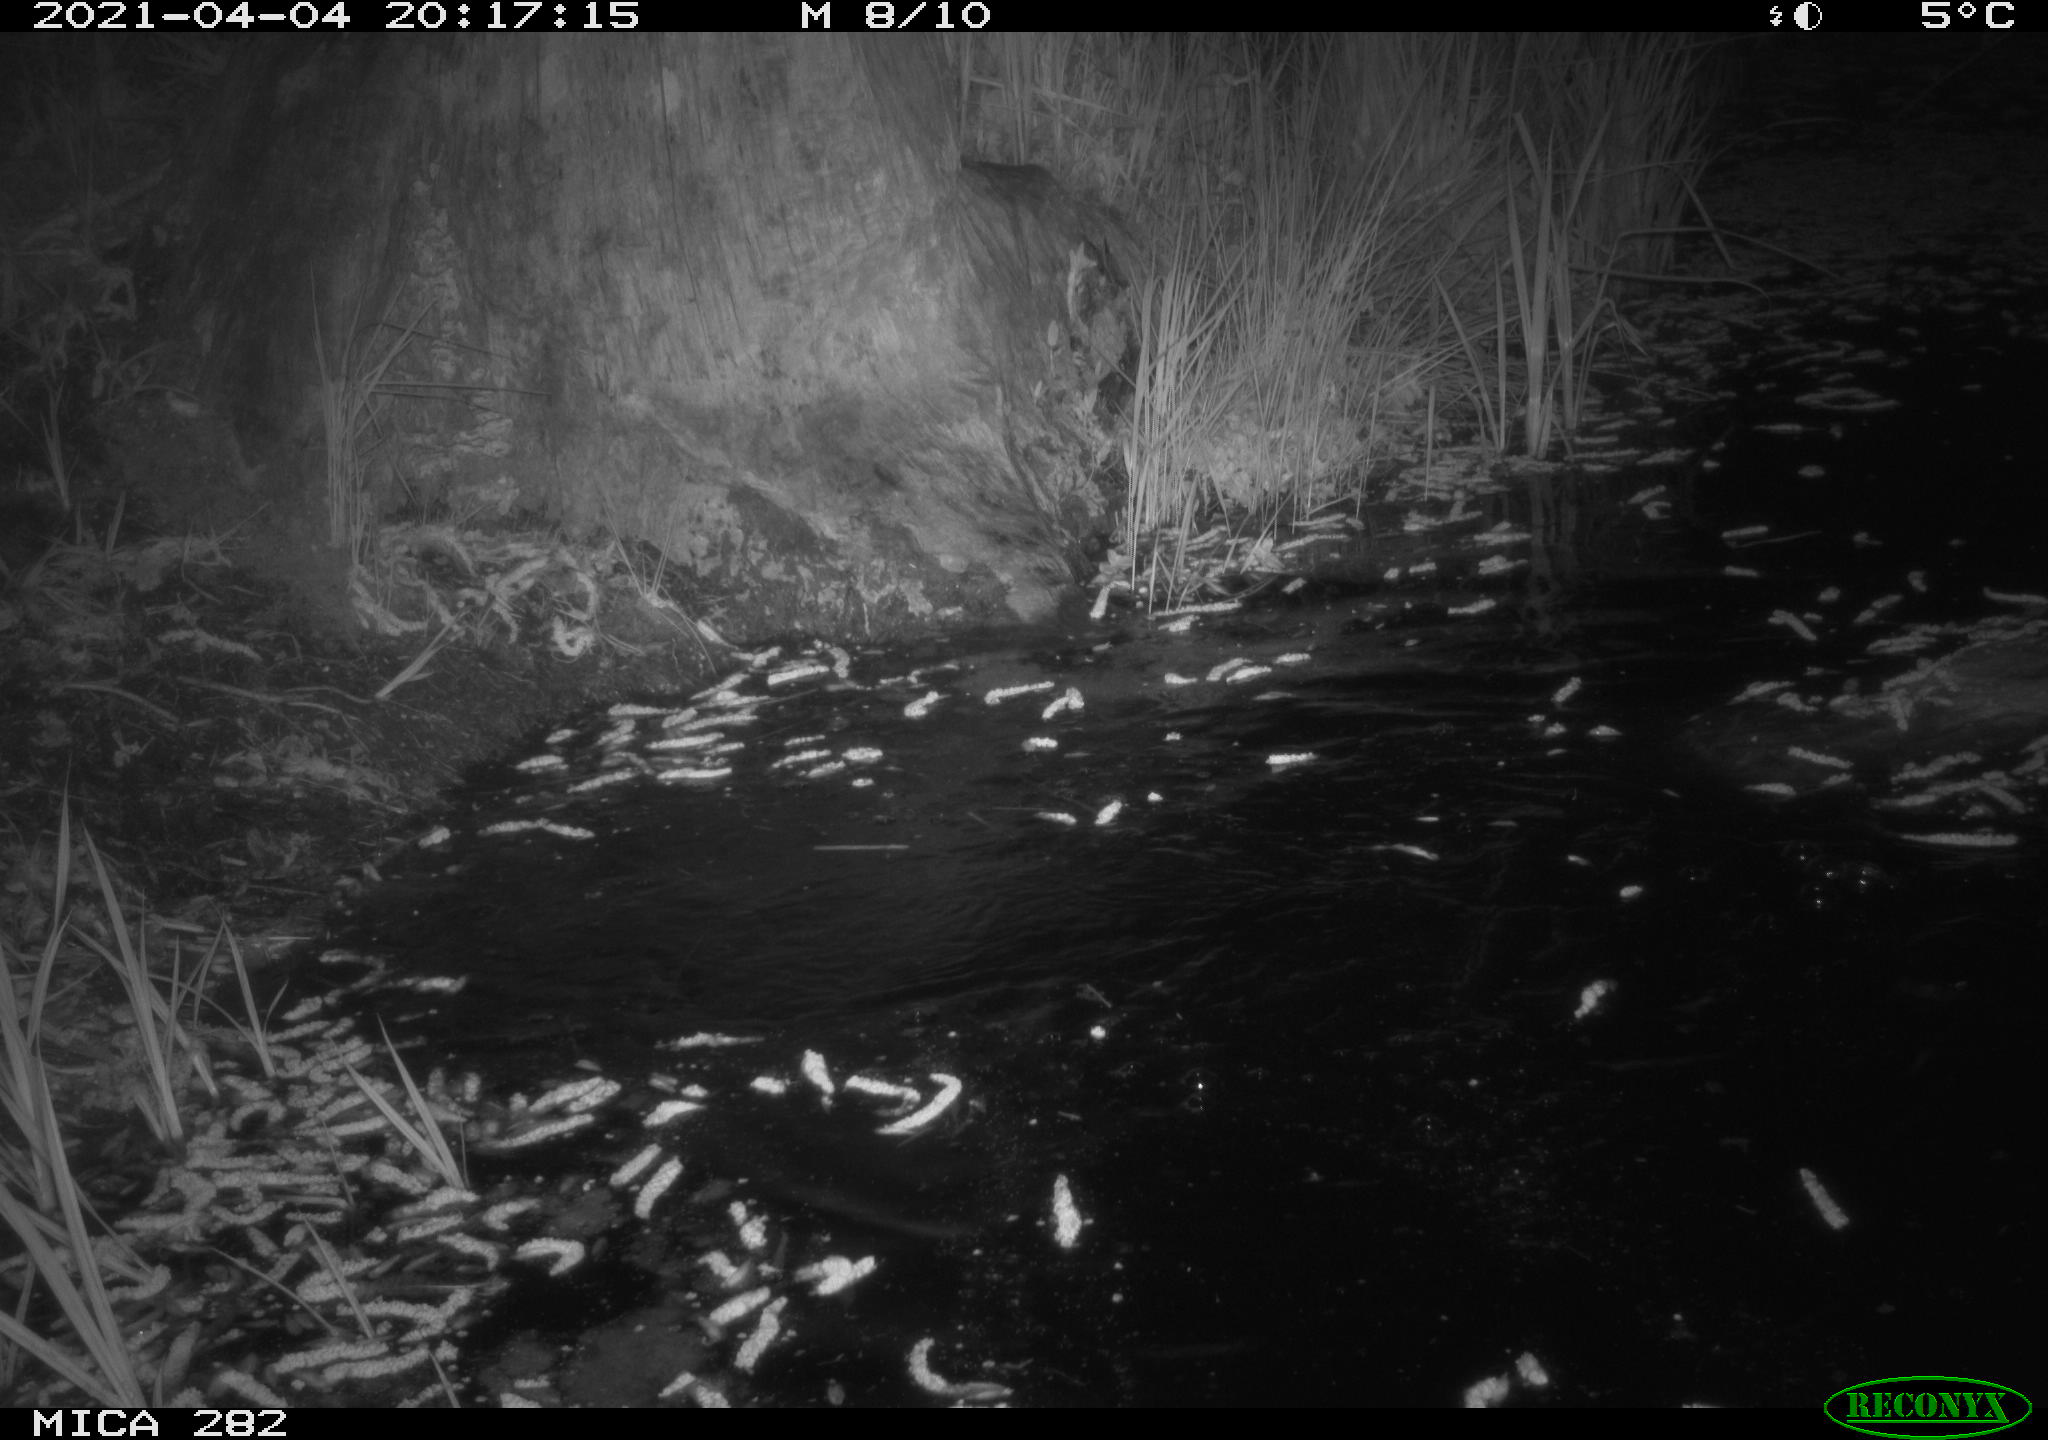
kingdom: Animalia
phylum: Chordata
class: Mammalia
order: Rodentia
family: Castoridae
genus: Castor
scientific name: Castor fiber
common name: Eurasian beaver
